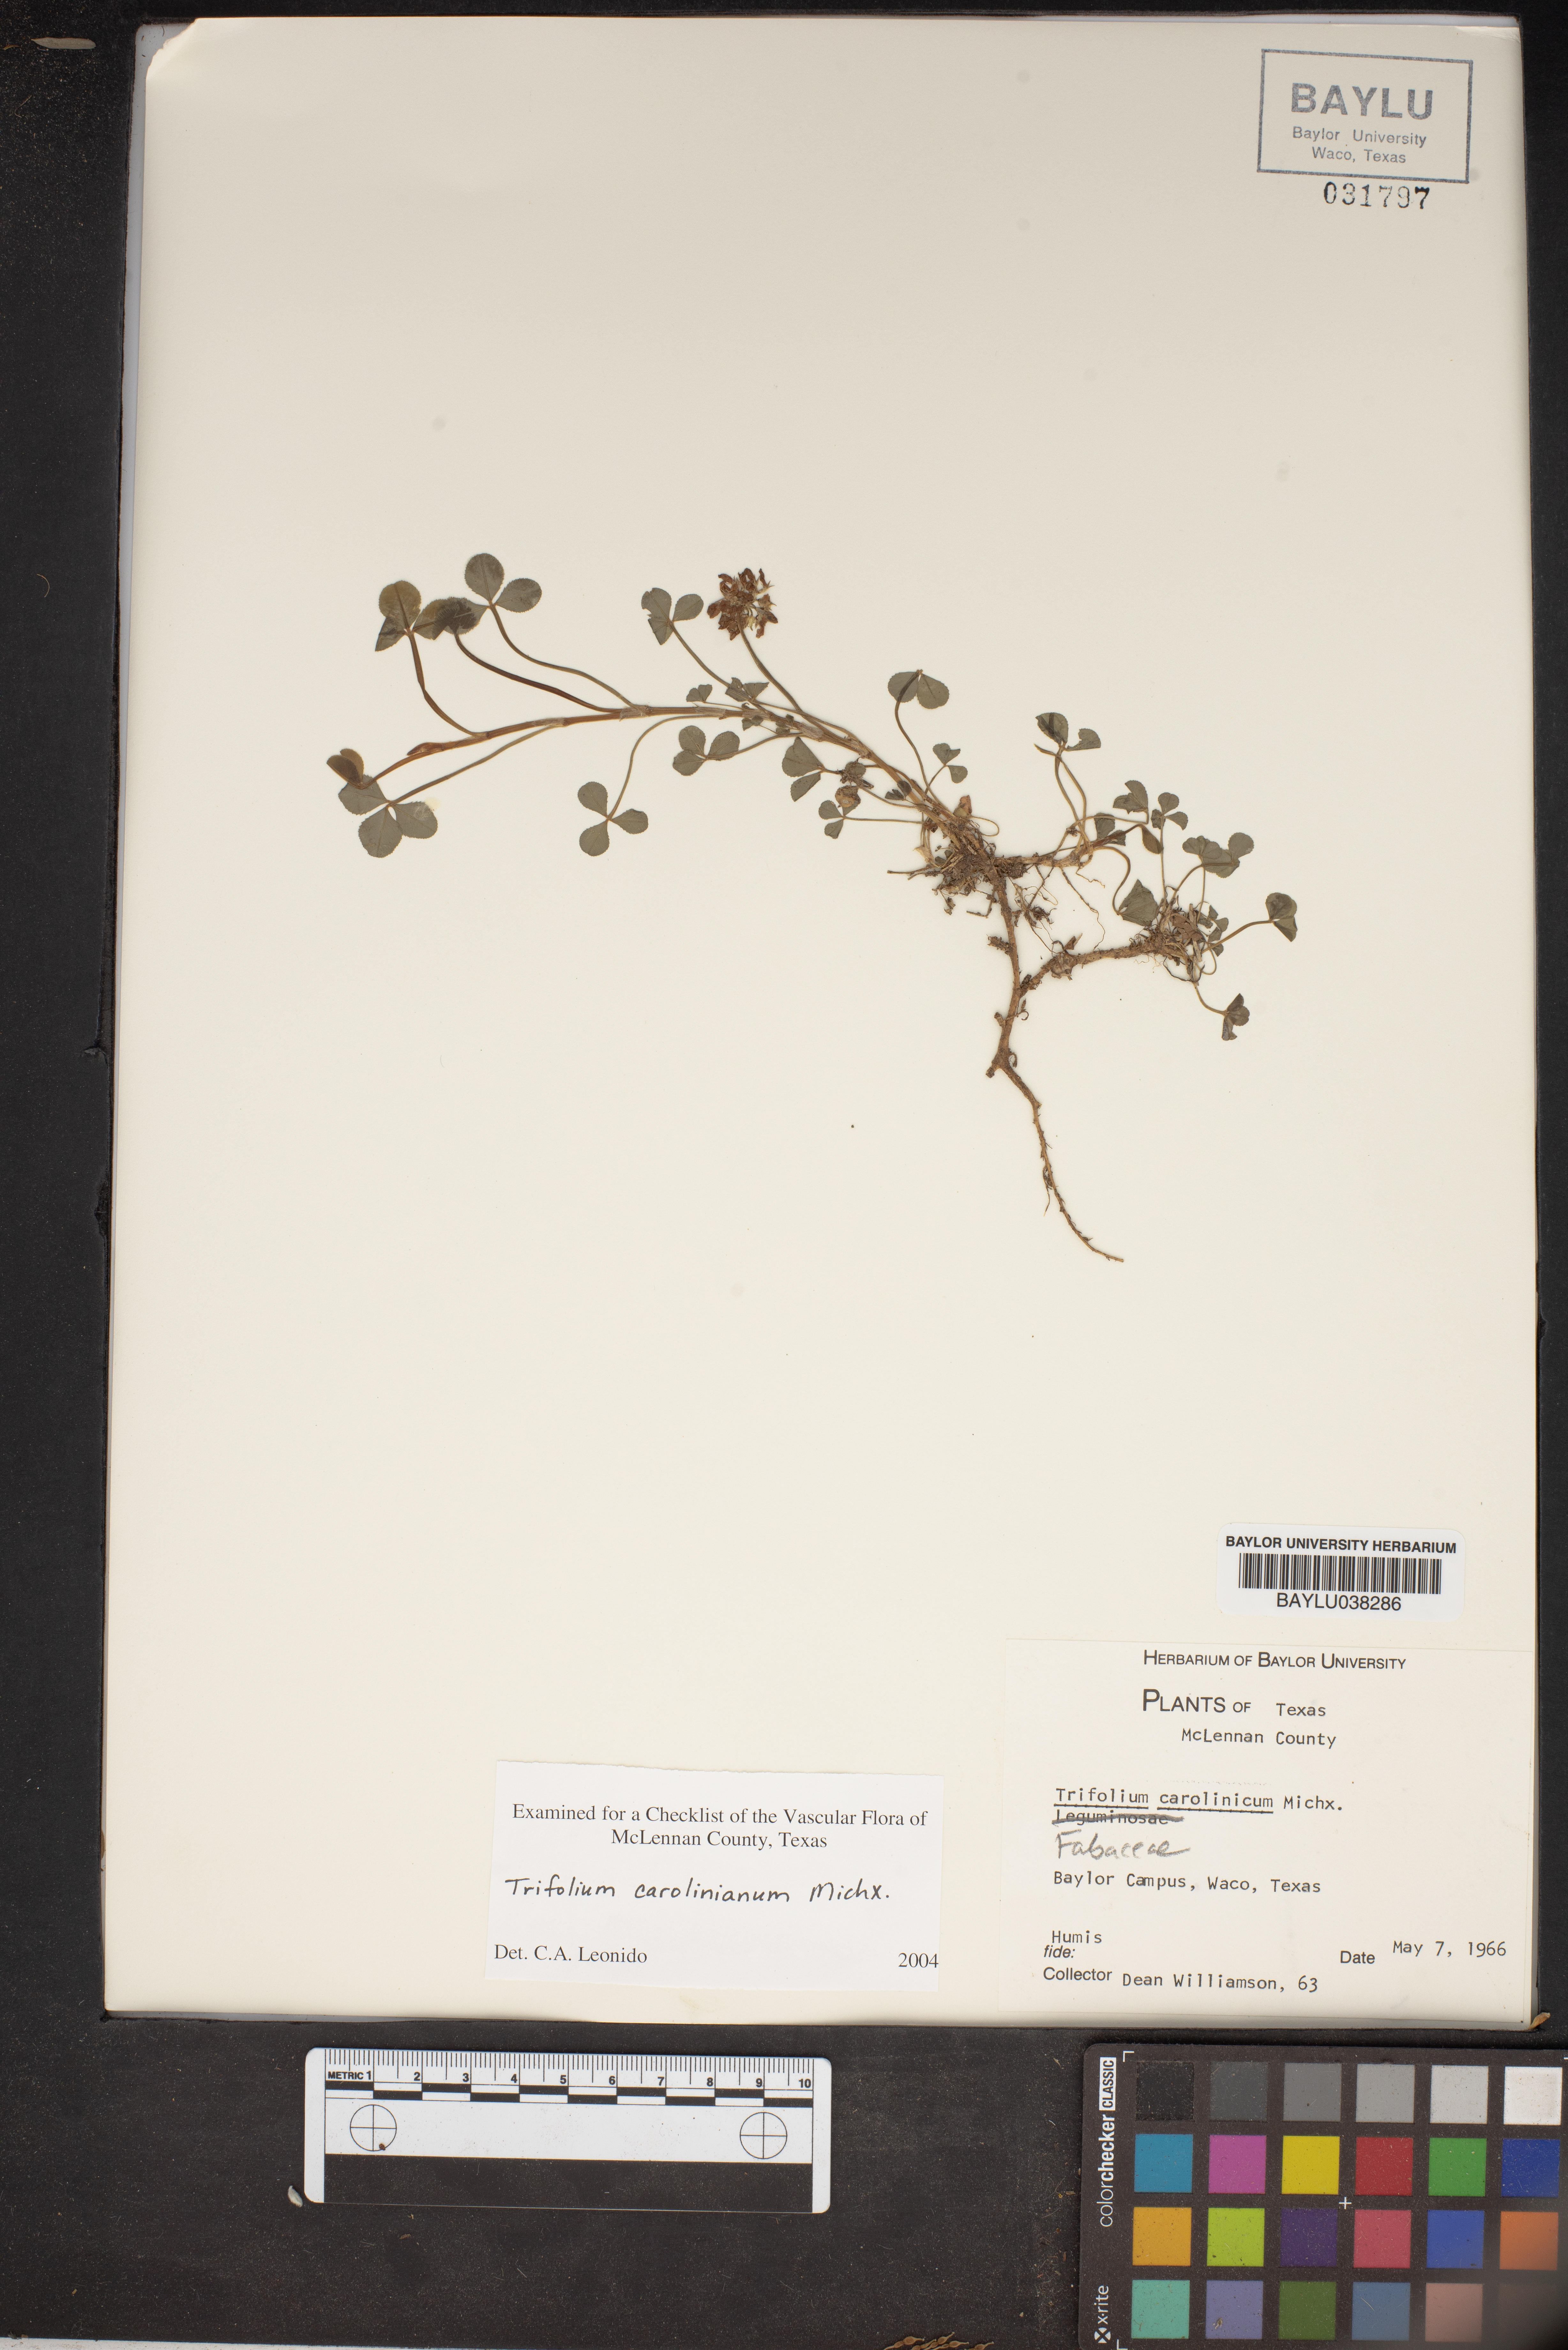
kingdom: Plantae
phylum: Tracheophyta
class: Magnoliopsida
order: Fabales
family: Fabaceae
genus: Trifolium
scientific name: Trifolium carolinianum
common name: Wild white clover
